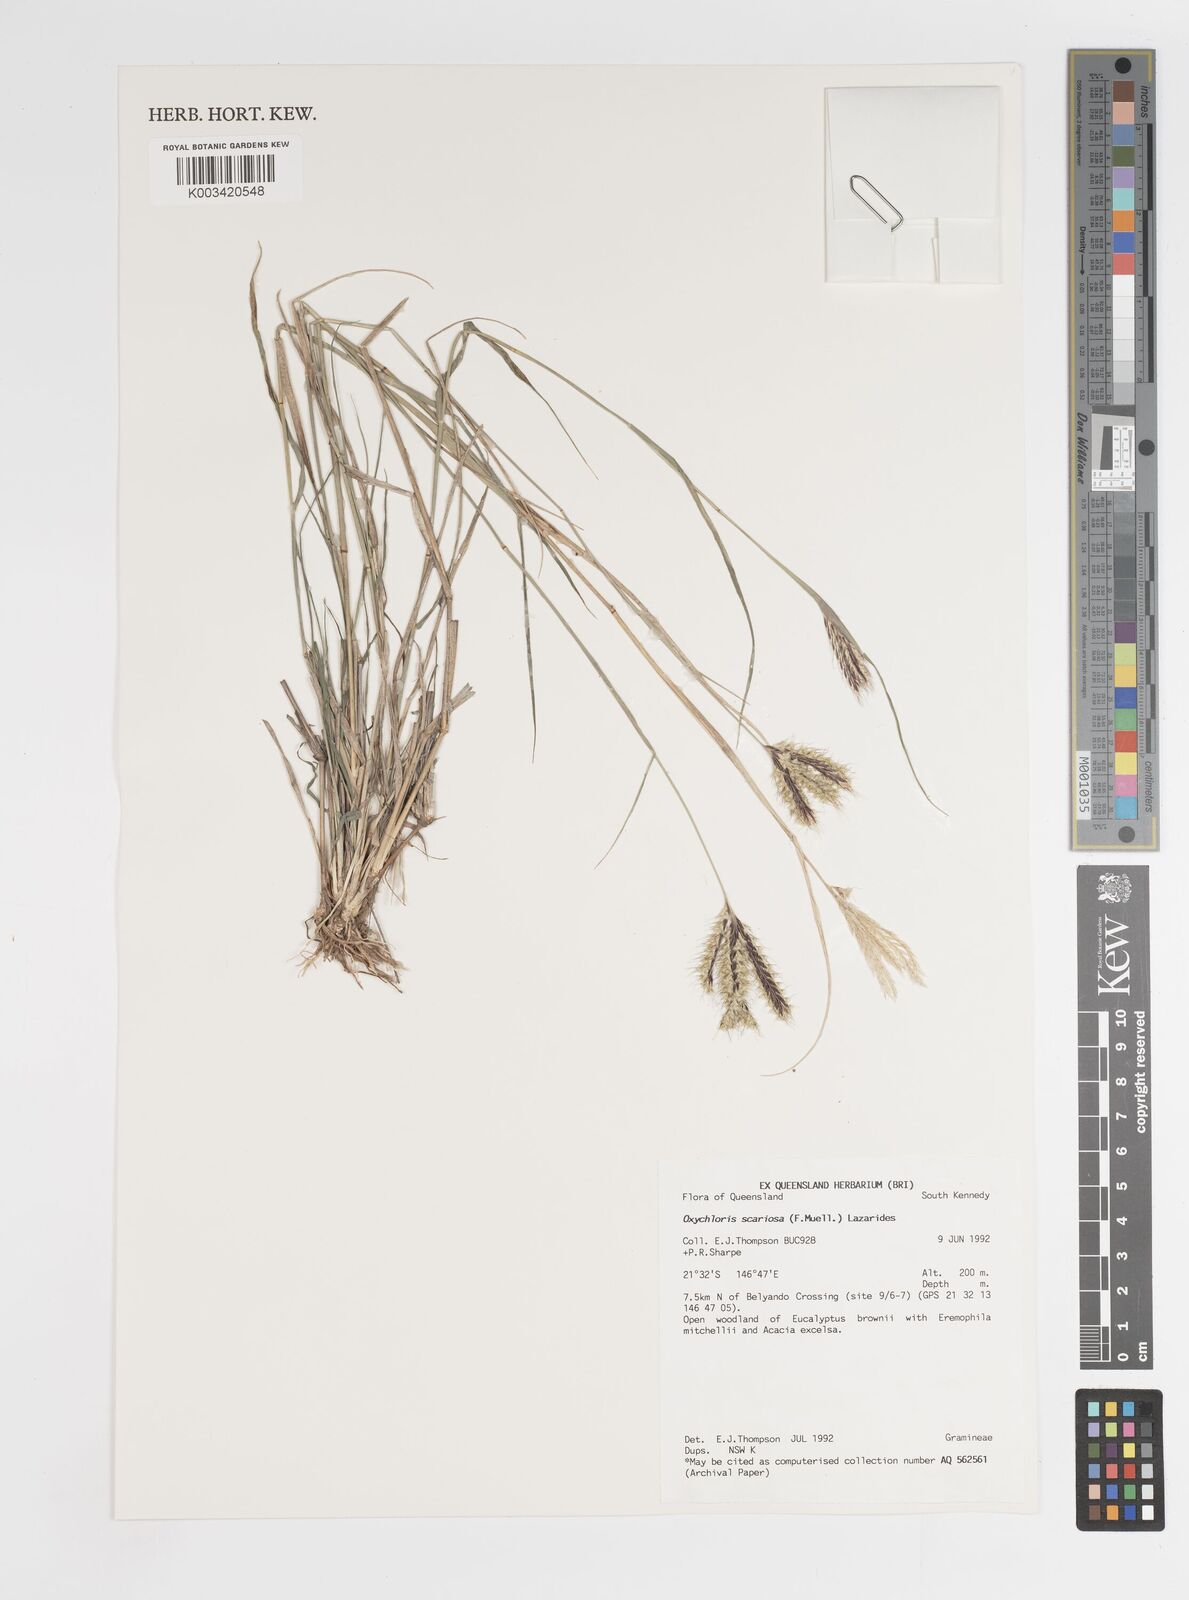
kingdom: Plantae
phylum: Tracheophyta
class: Liliopsida
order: Poales
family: Poaceae
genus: Oxychloris
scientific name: Oxychloris scariosa
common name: Winged windmill grass
